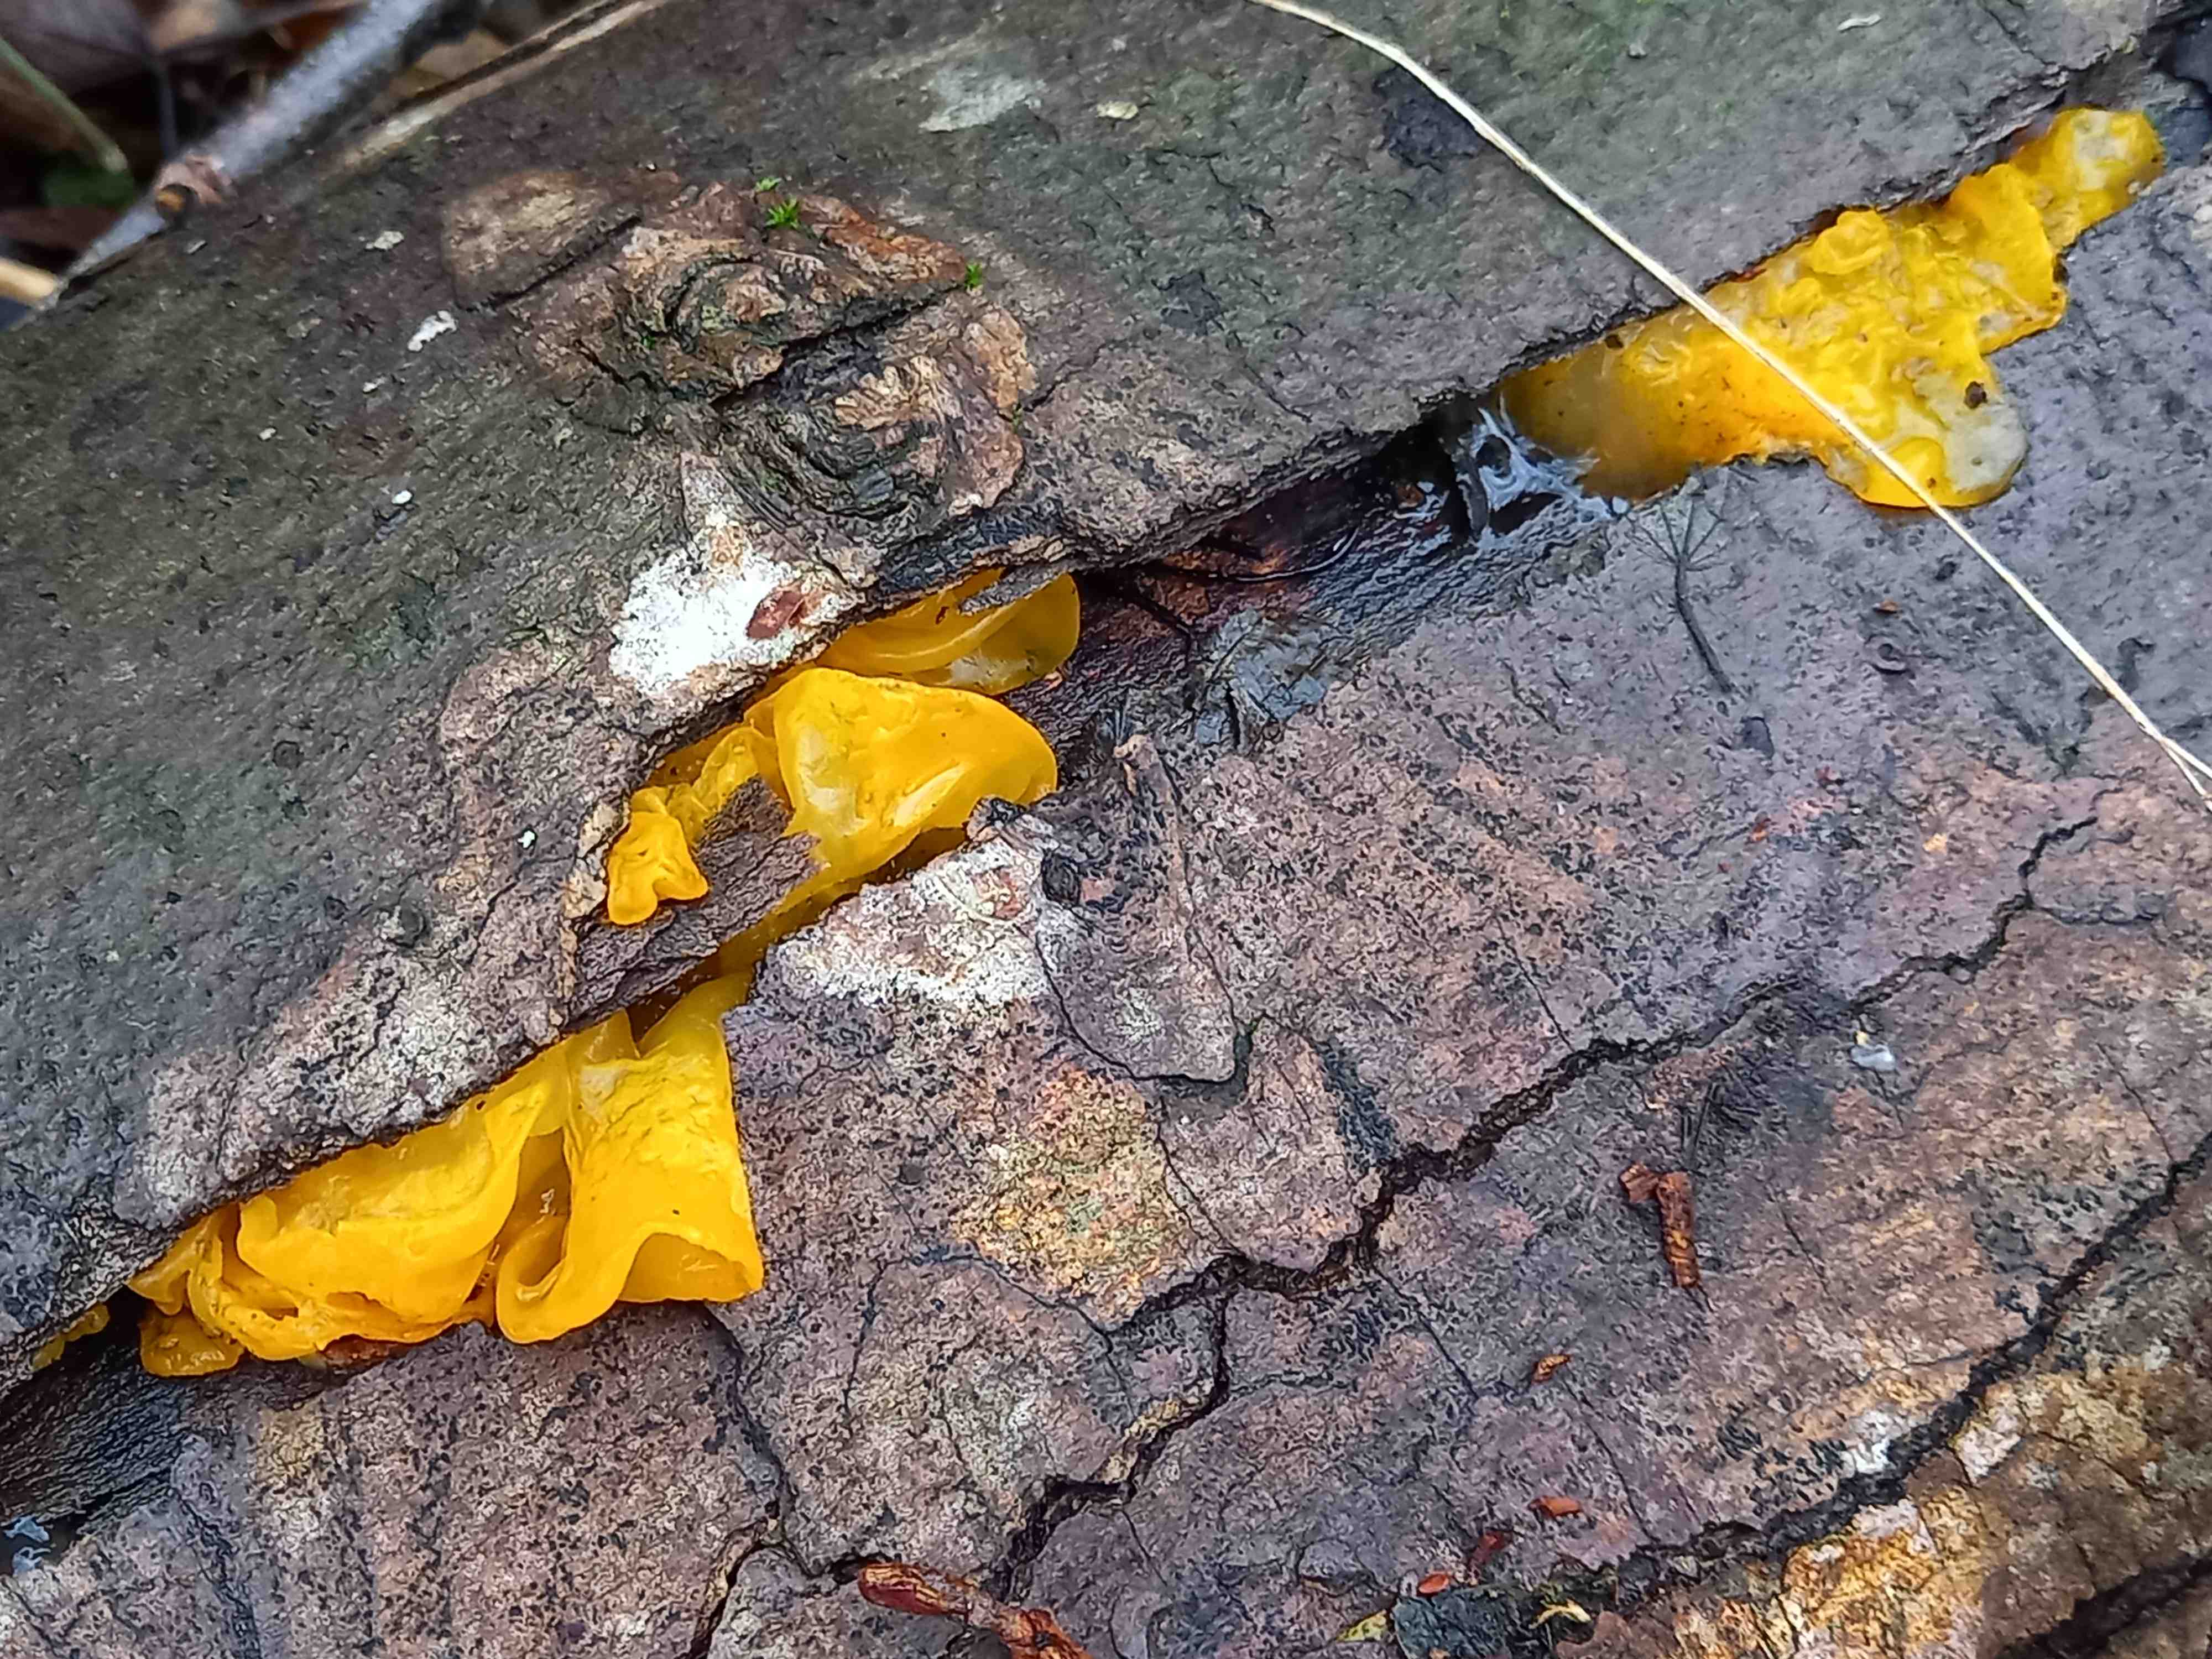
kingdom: Fungi
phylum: Basidiomycota
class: Tremellomycetes
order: Tremellales
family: Tremellaceae
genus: Tremella
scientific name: Tremella mesenterica
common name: gul bævresvamp
